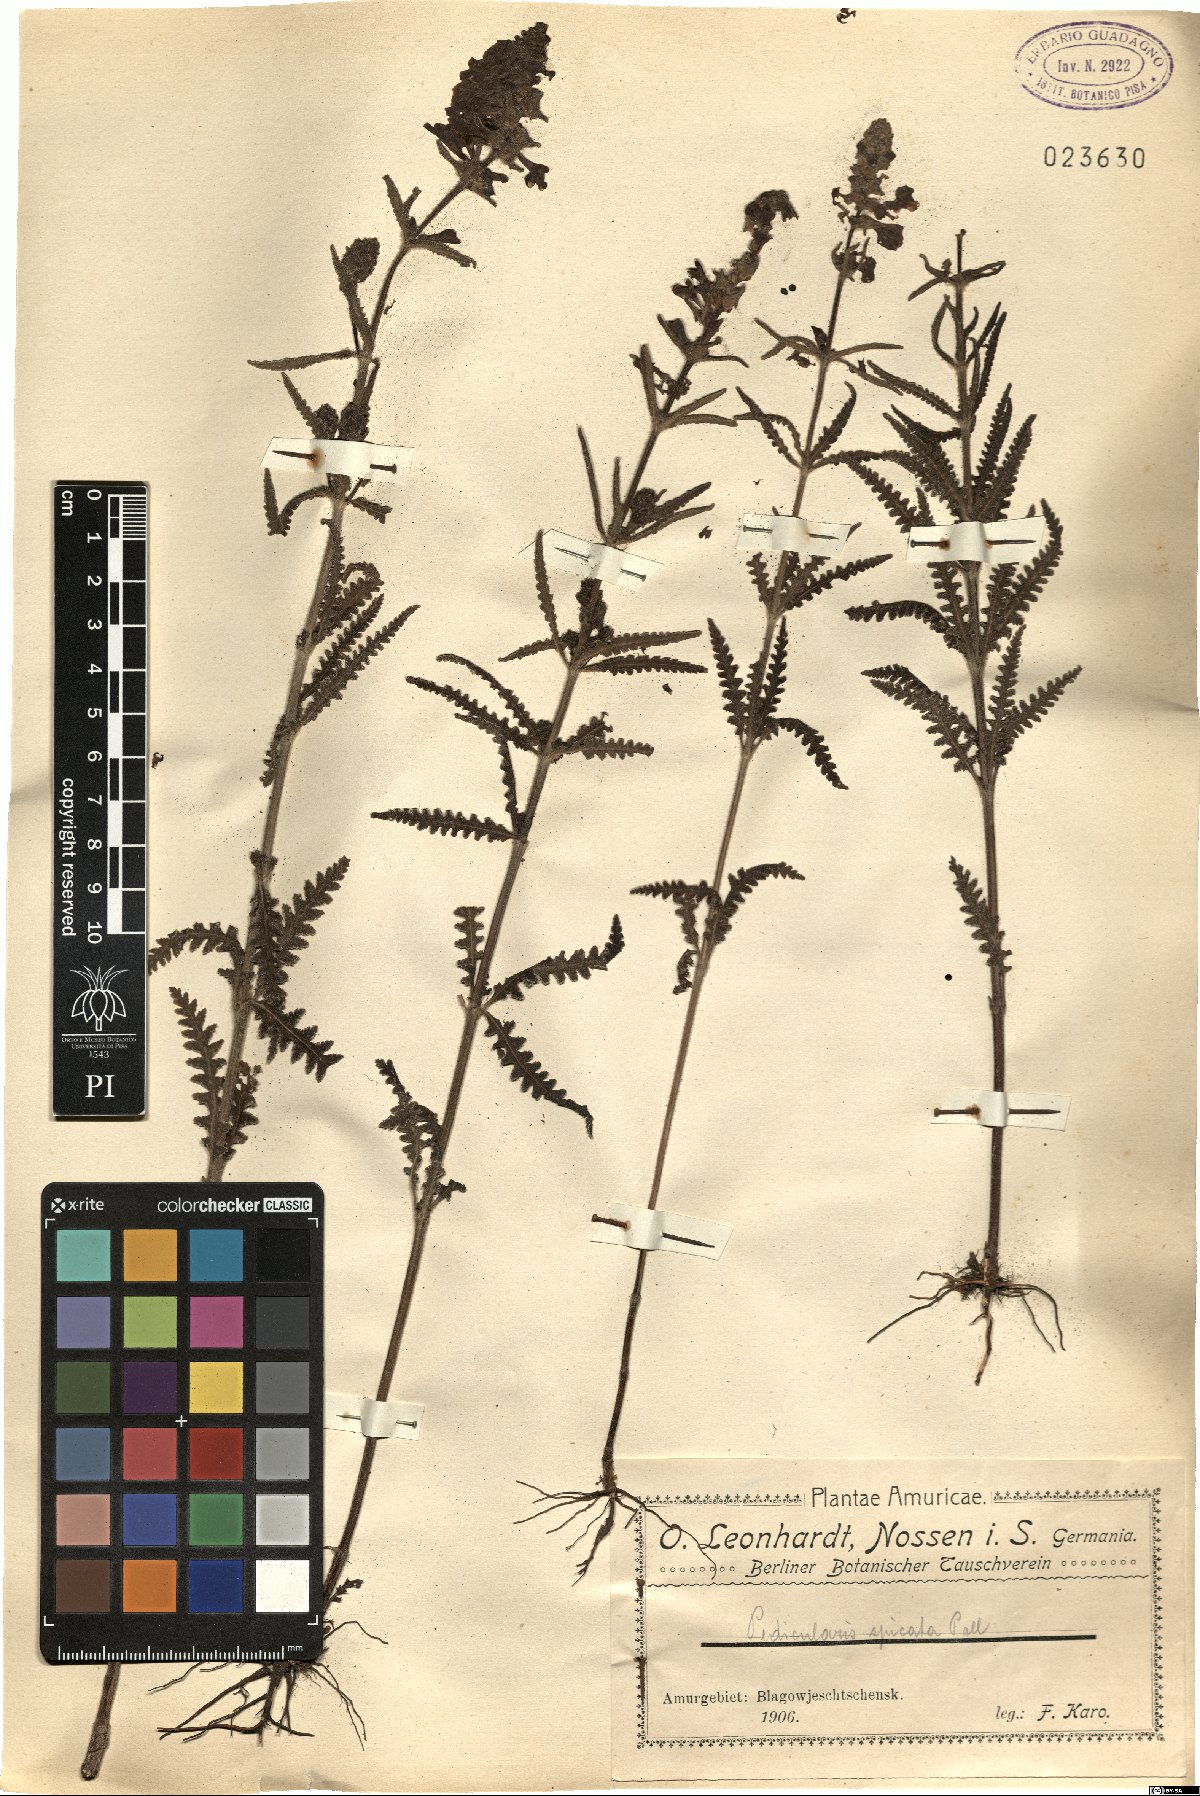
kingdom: Plantae
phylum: Tracheophyta
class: Magnoliopsida
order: Lamiales
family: Orobanchaceae
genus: Pedicularis
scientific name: Pedicularis spicata
